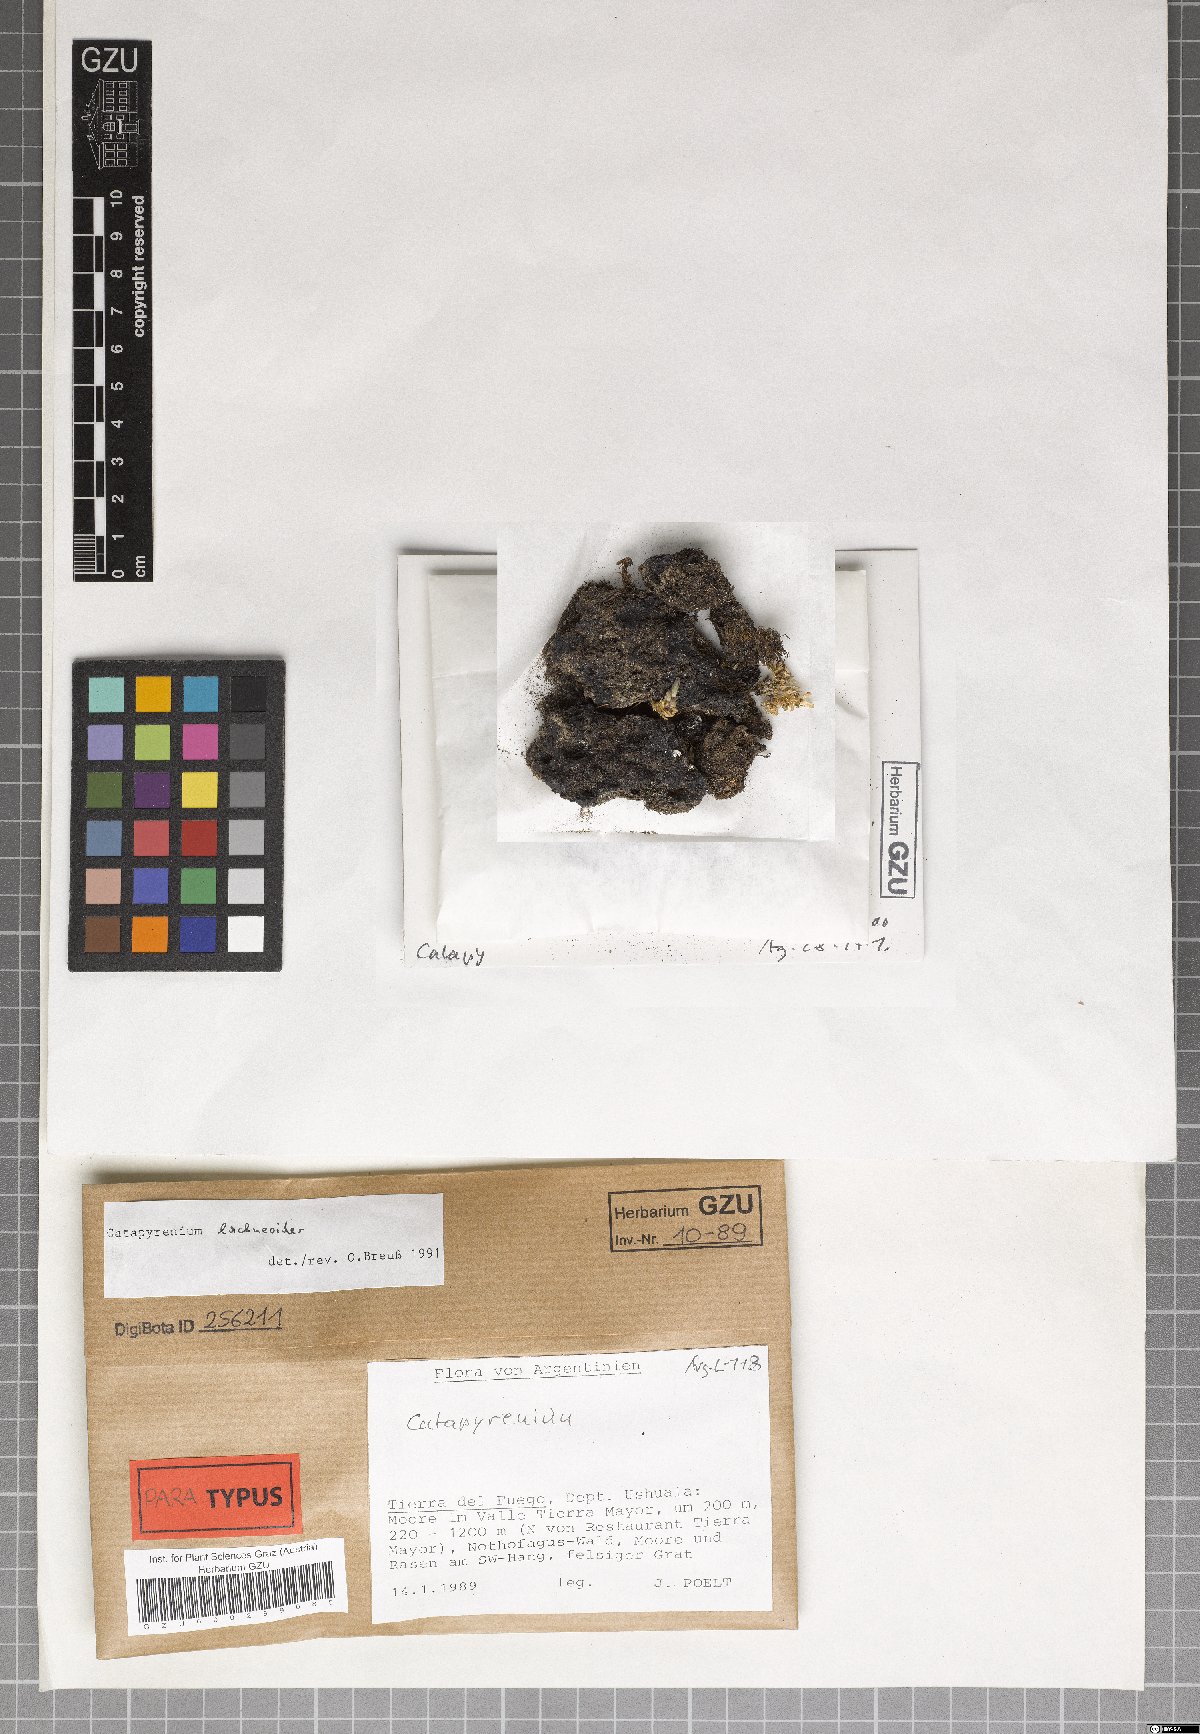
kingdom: Fungi
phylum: Ascomycota
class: Eurotiomycetes
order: Verrucariales
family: Verrucariaceae
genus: Catapyrenium
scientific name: Catapyrenium lachneoides
